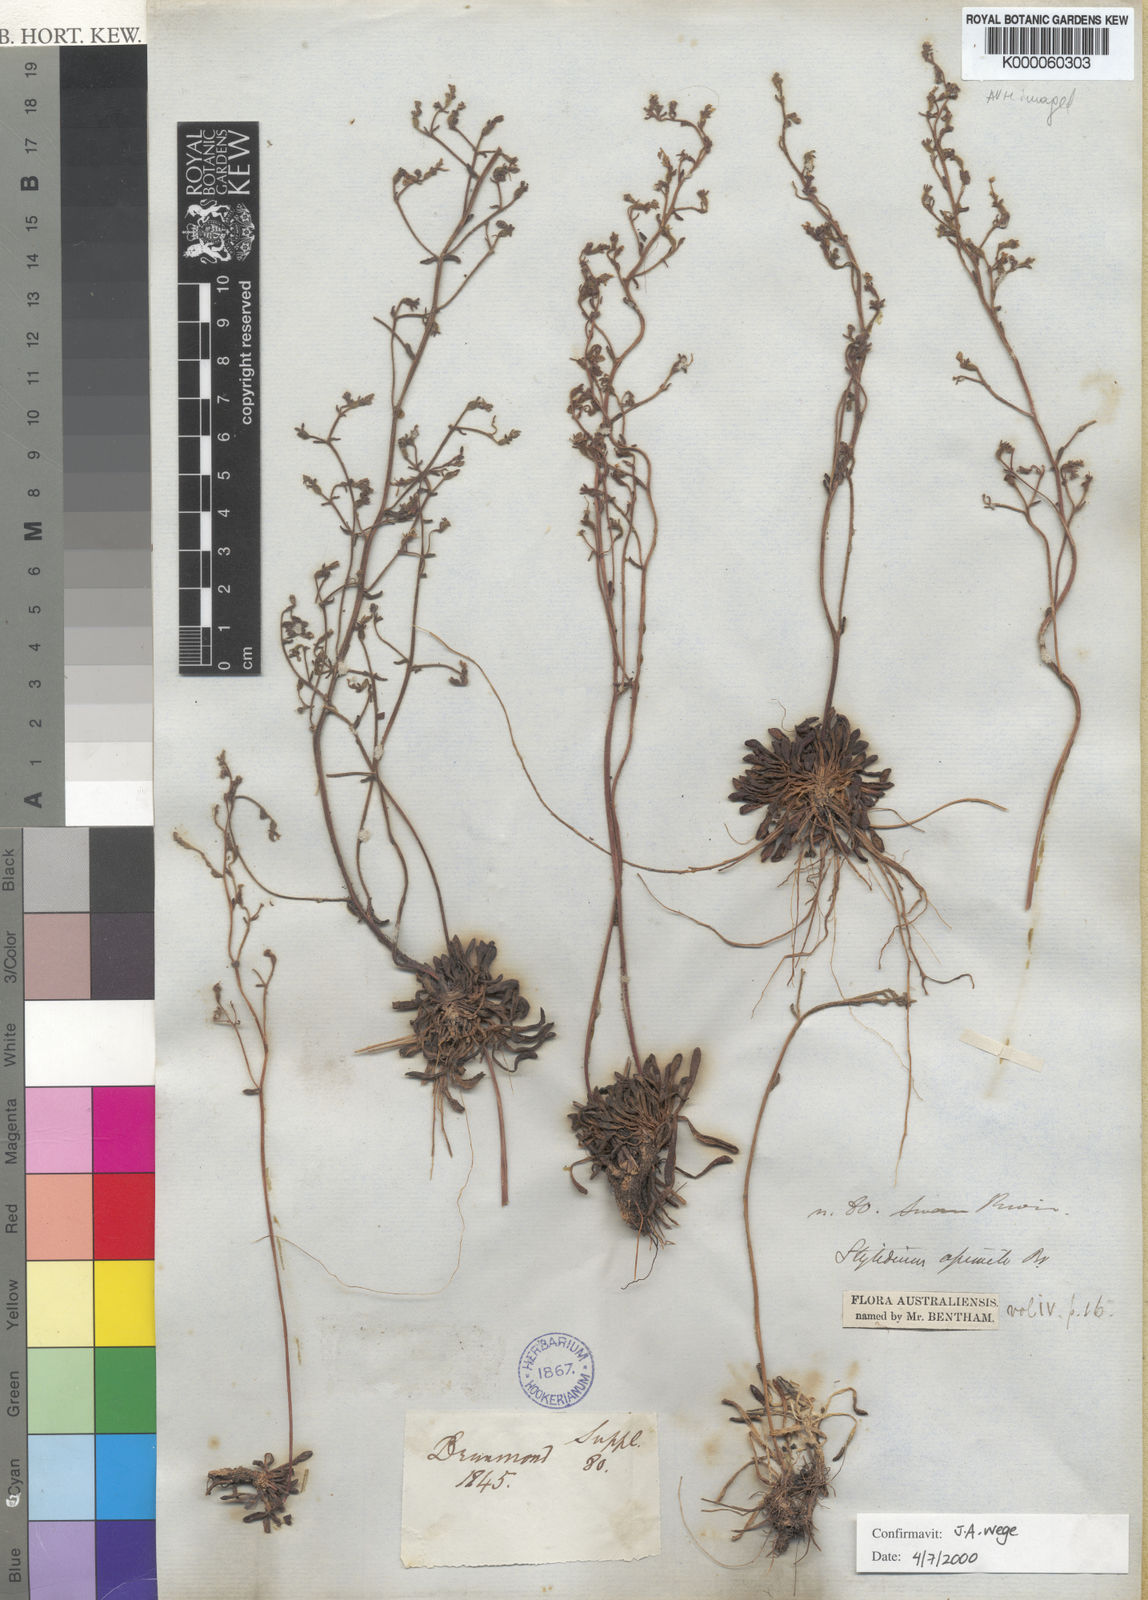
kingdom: Plantae
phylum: Tracheophyta
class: Magnoliopsida
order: Asterales
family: Stylidiaceae
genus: Stylidium
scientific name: Stylidium assimile
